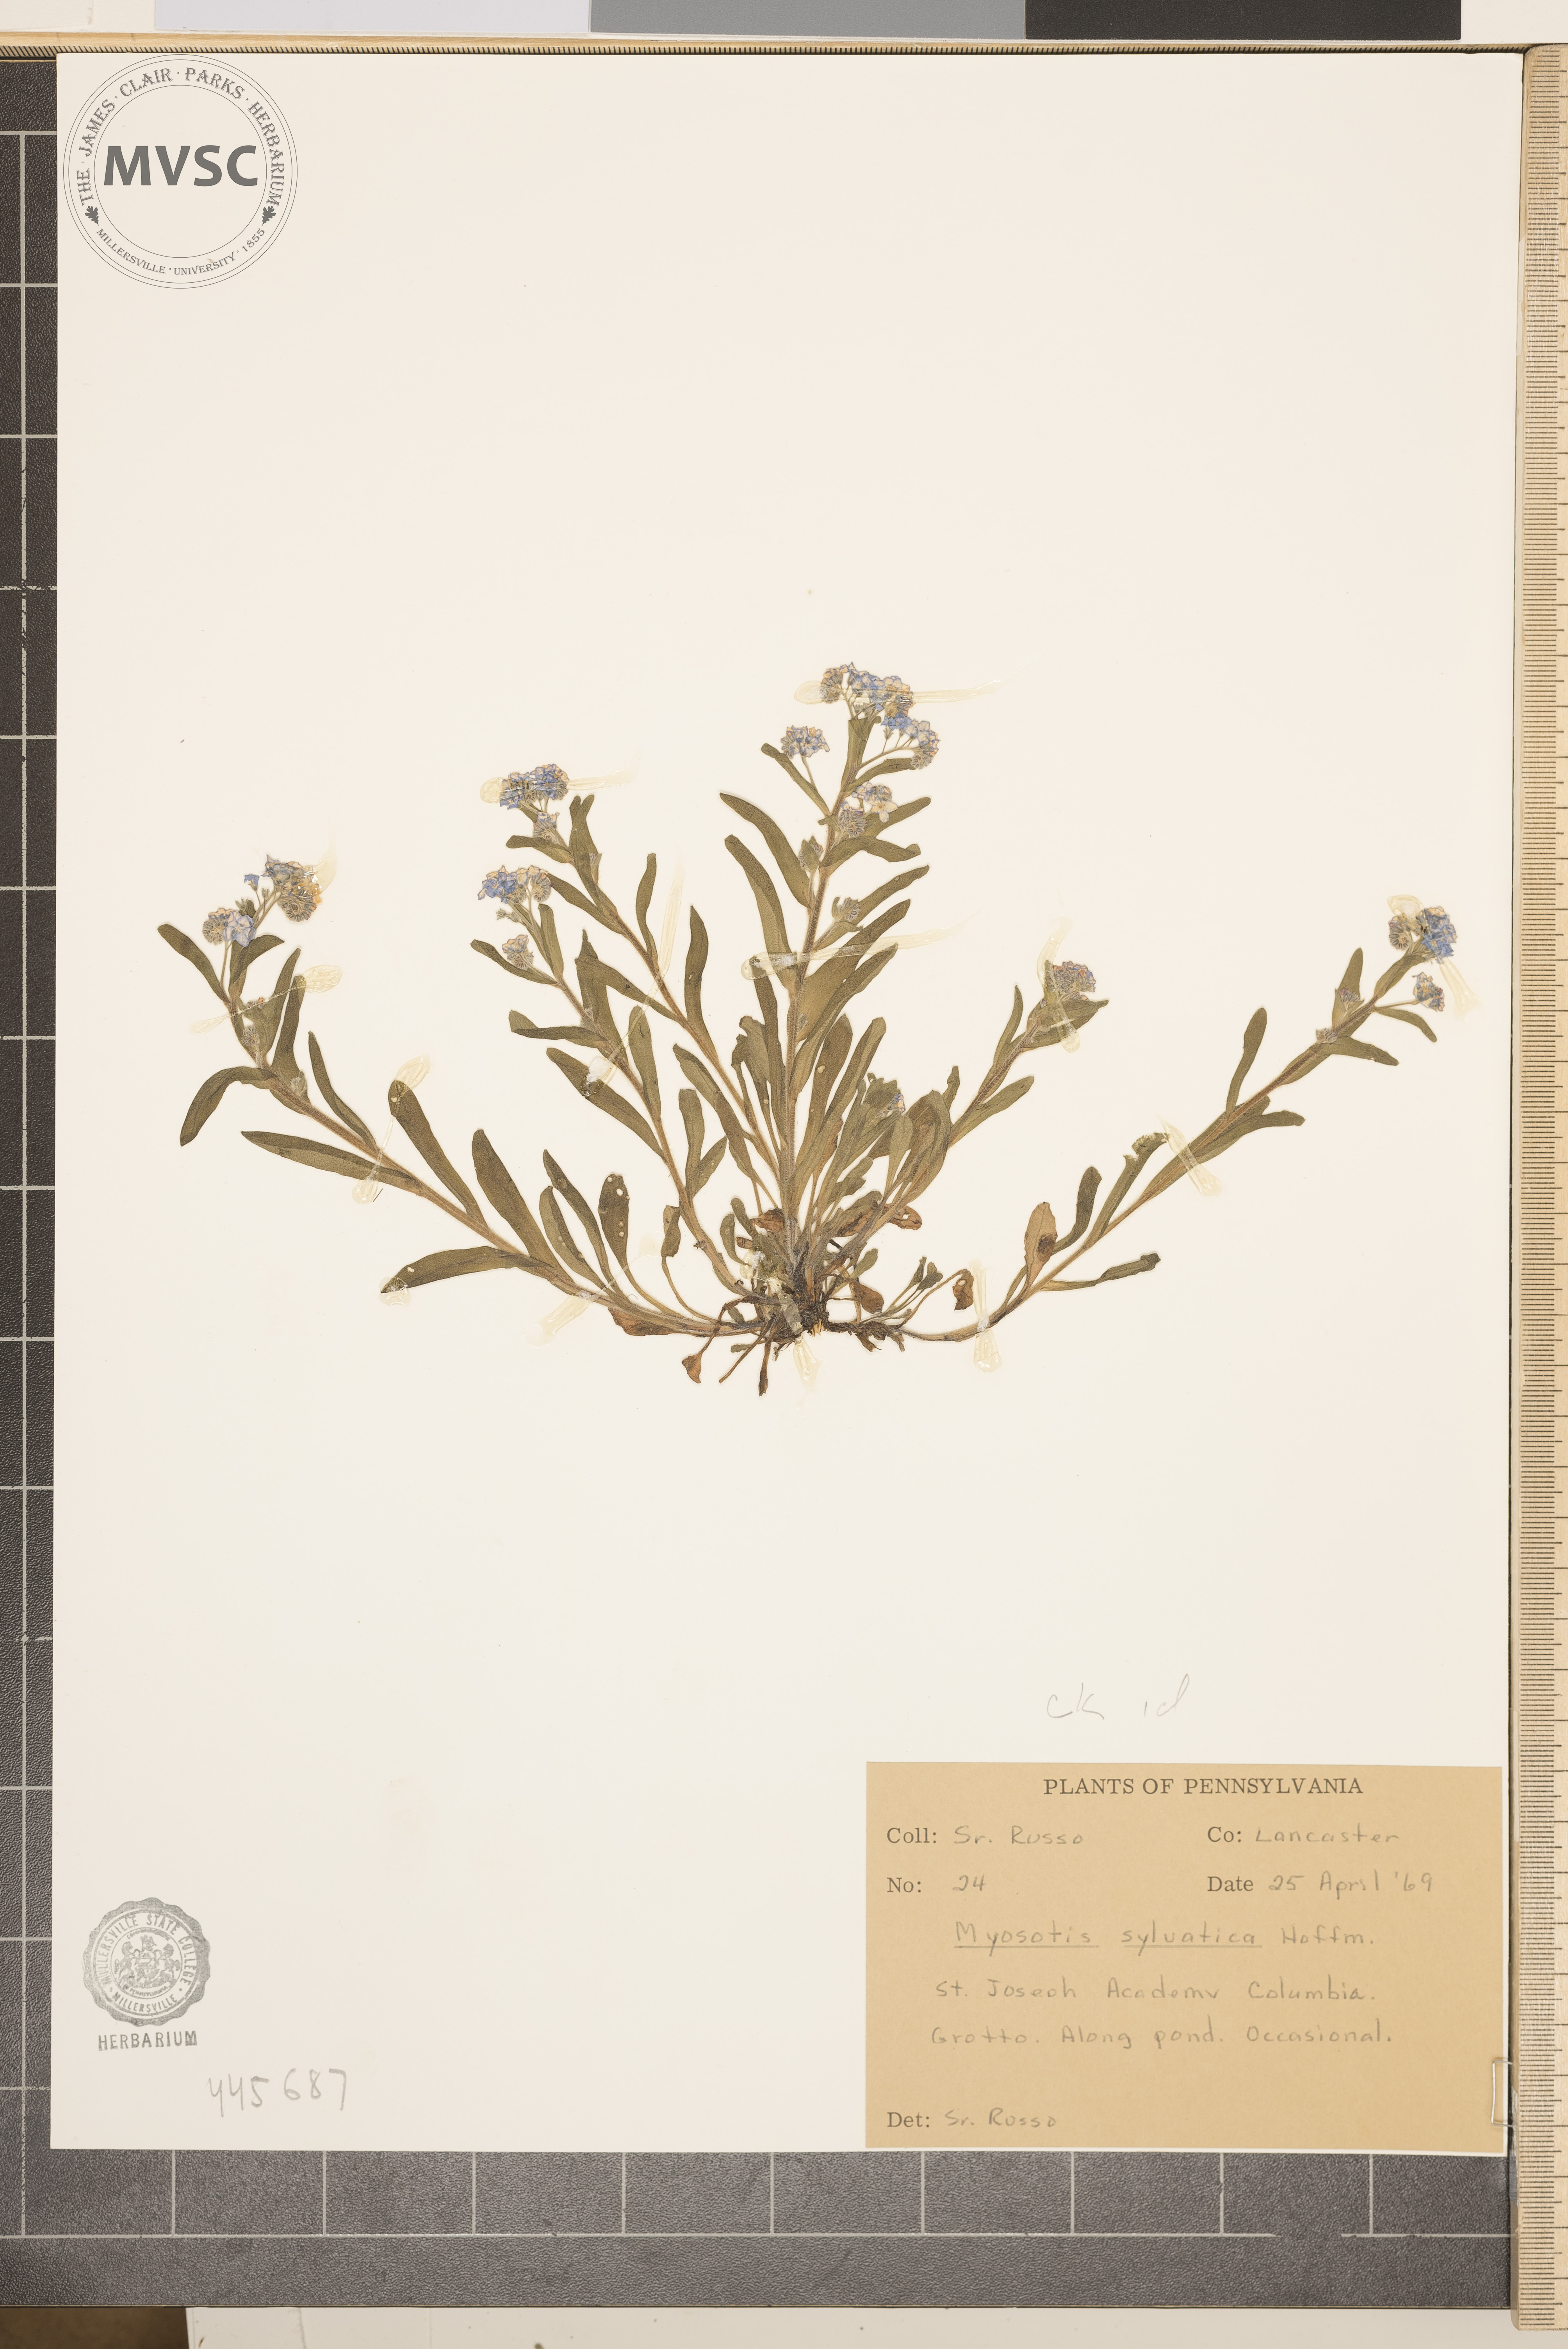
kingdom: Plantae
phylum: Tracheophyta
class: Magnoliopsida
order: Boraginales
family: Boraginaceae
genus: Myosotis
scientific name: Myosotis sylvatica
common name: Wood forget-me-not
